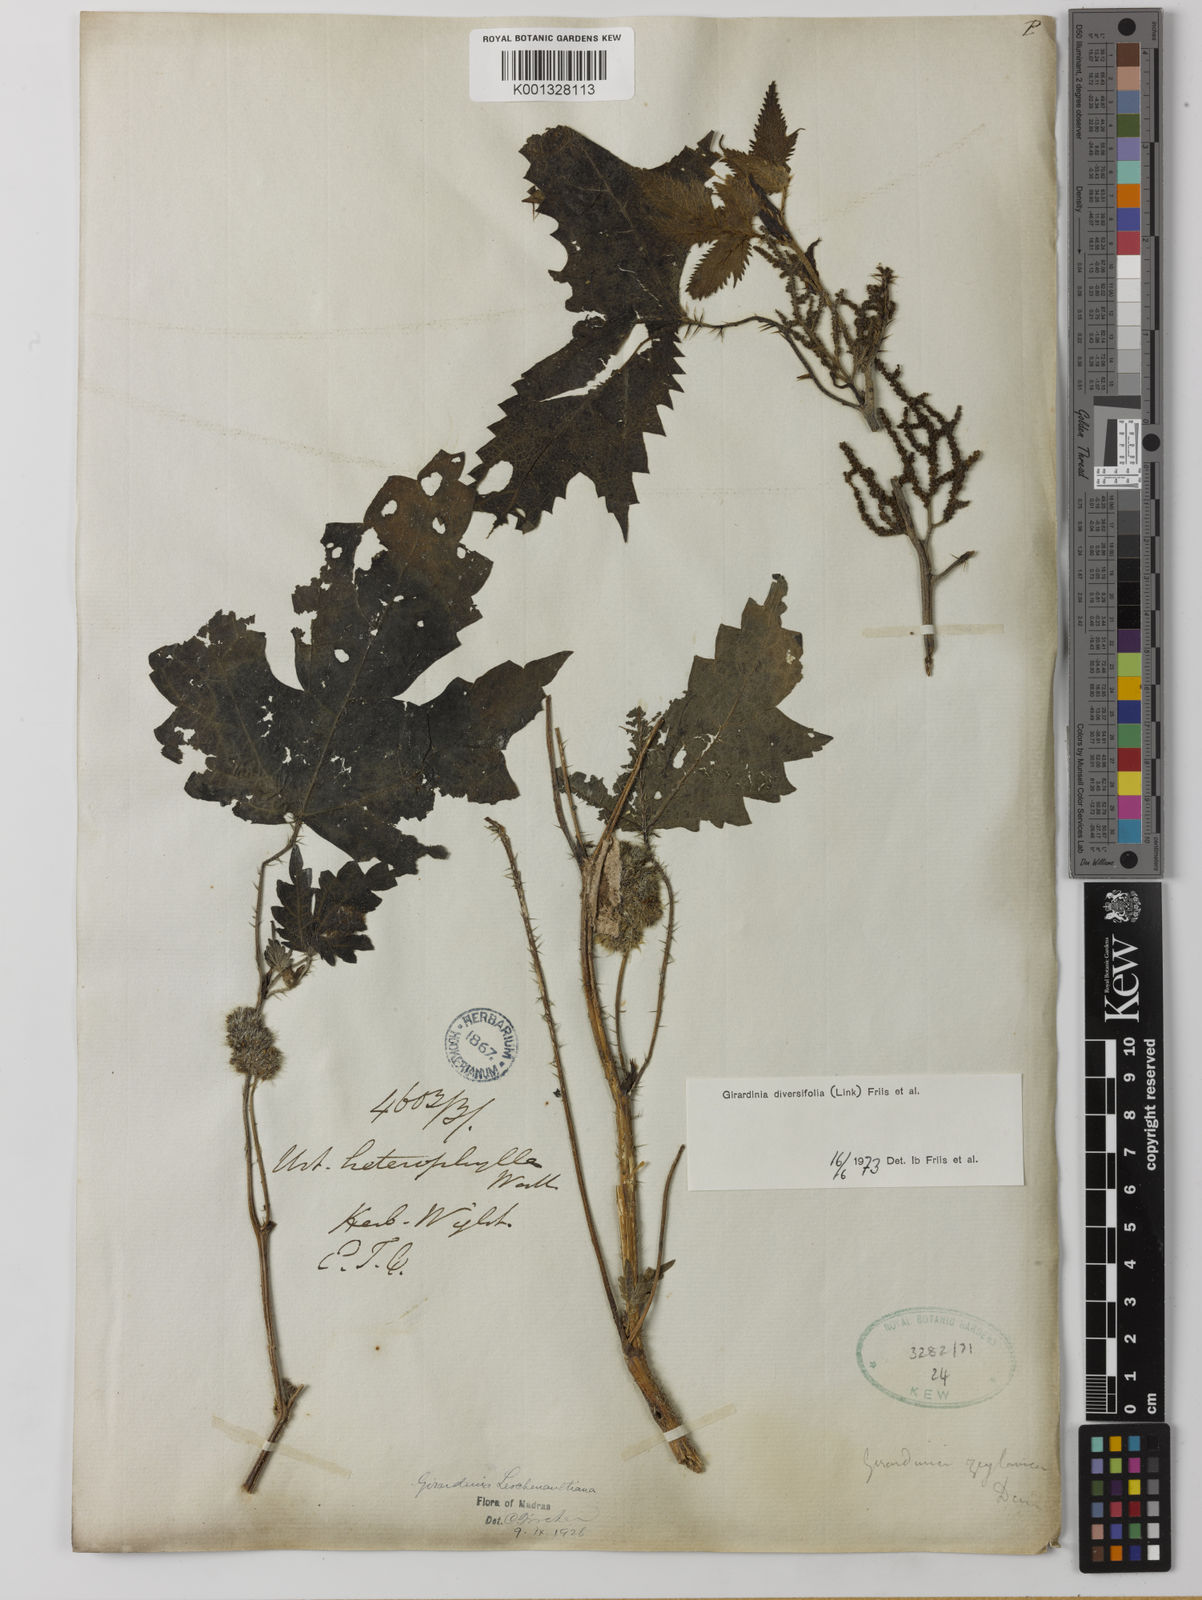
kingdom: Plantae
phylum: Tracheophyta
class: Magnoliopsida
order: Rosales
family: Urticaceae
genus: Girardinia
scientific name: Girardinia diversifolia
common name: Himalayan-nettle
